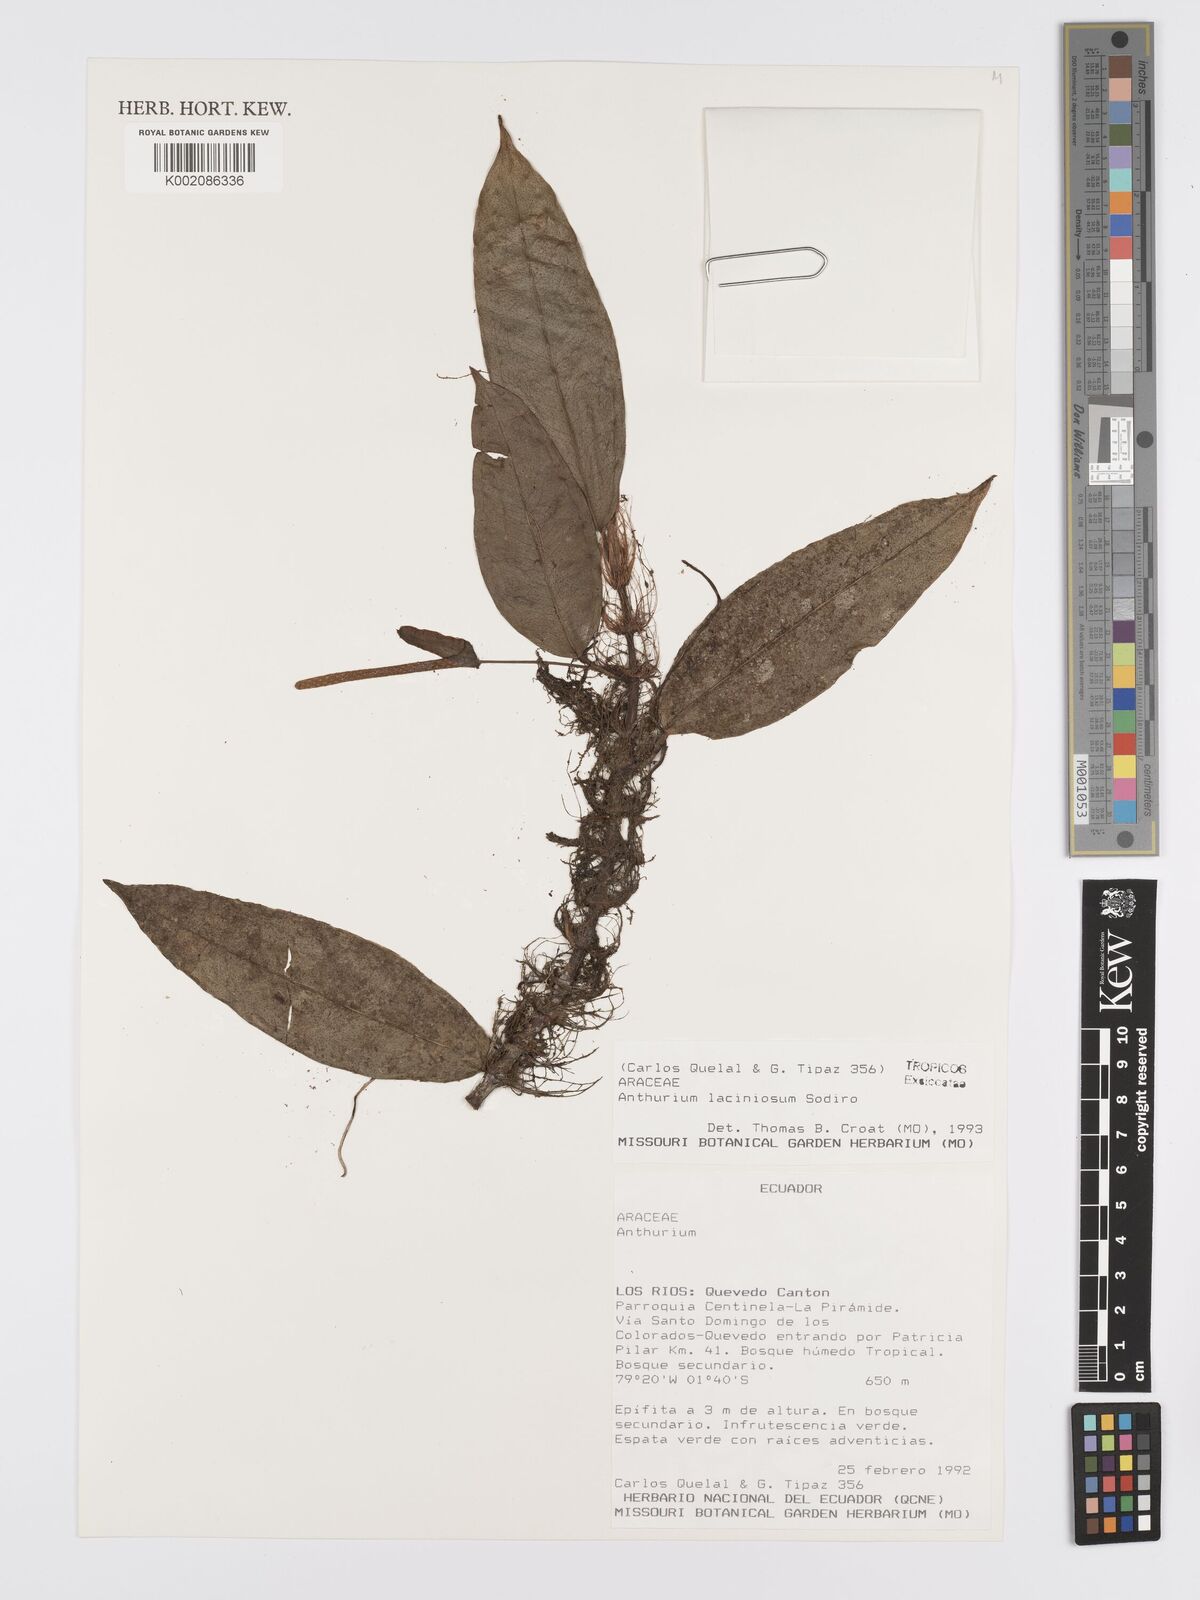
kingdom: Plantae
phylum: Tracheophyta
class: Liliopsida
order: Alismatales
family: Araceae
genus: Anthurium
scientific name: Anthurium laciniosum
